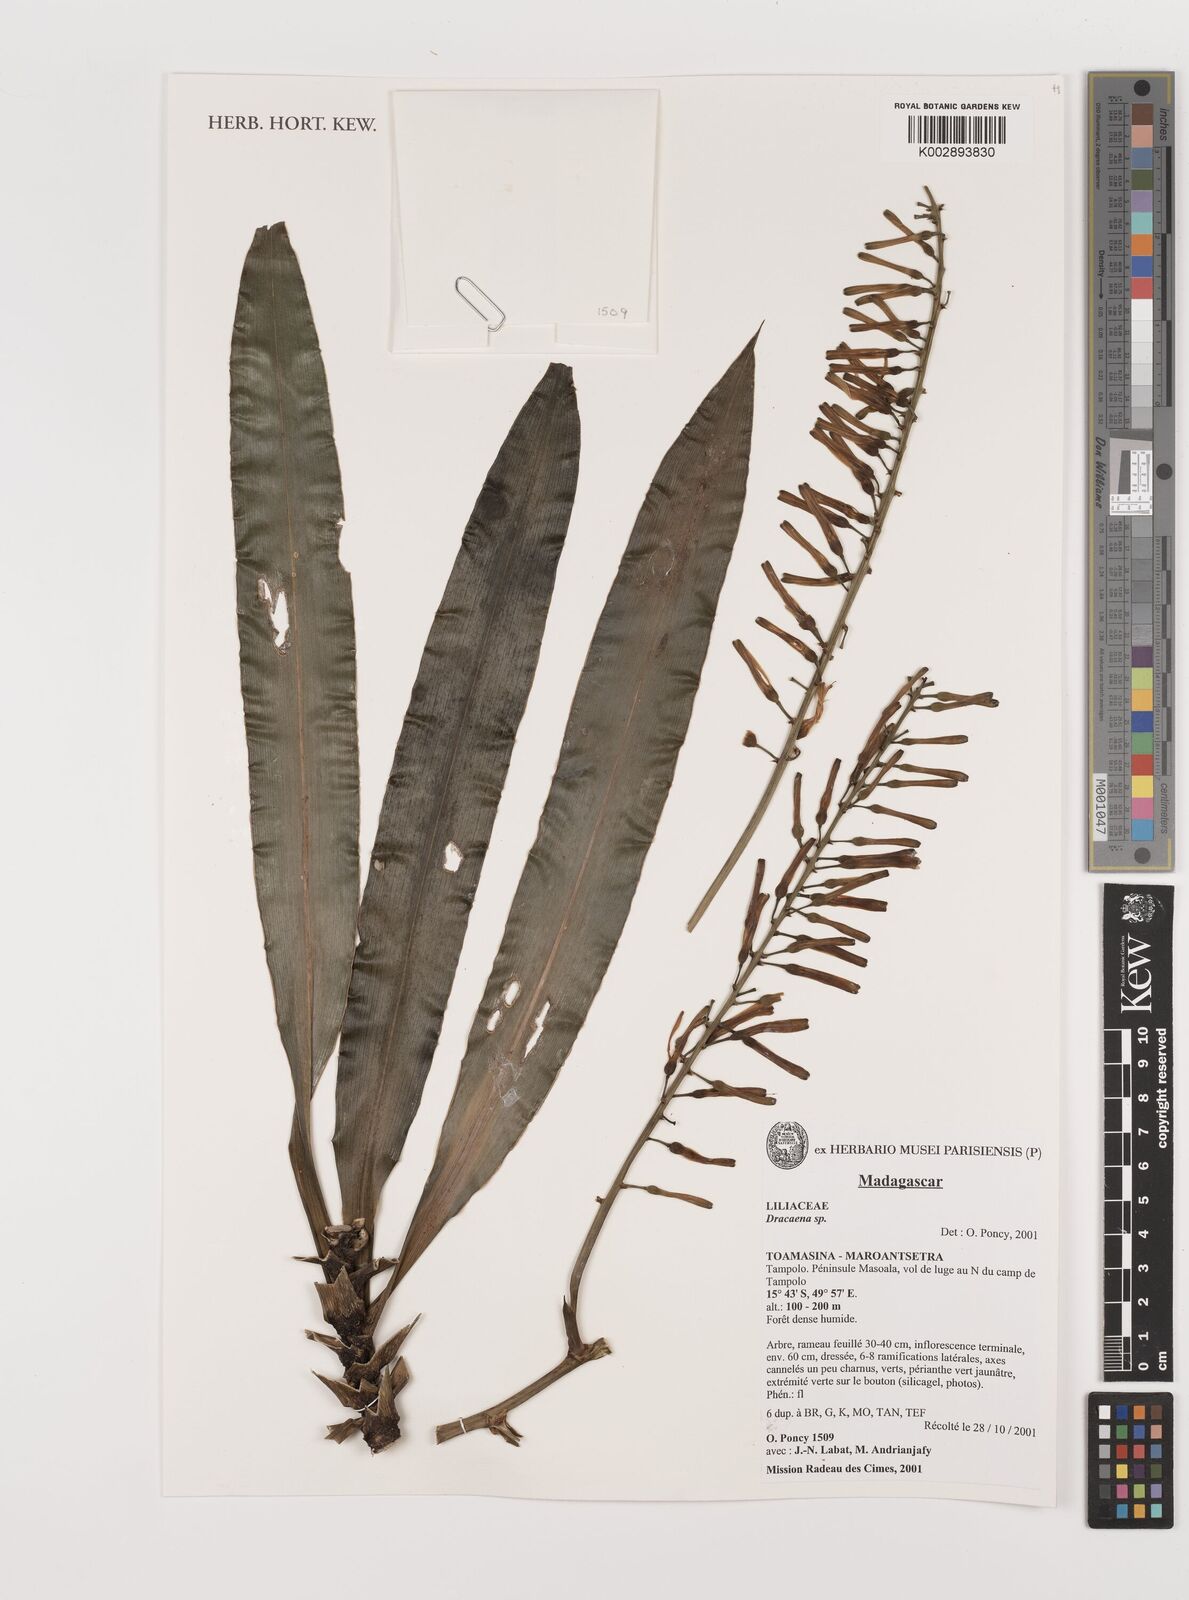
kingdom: Plantae
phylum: Tracheophyta
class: Liliopsida
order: Asparagales
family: Asparagaceae
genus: Dracaena
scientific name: Dracaena
